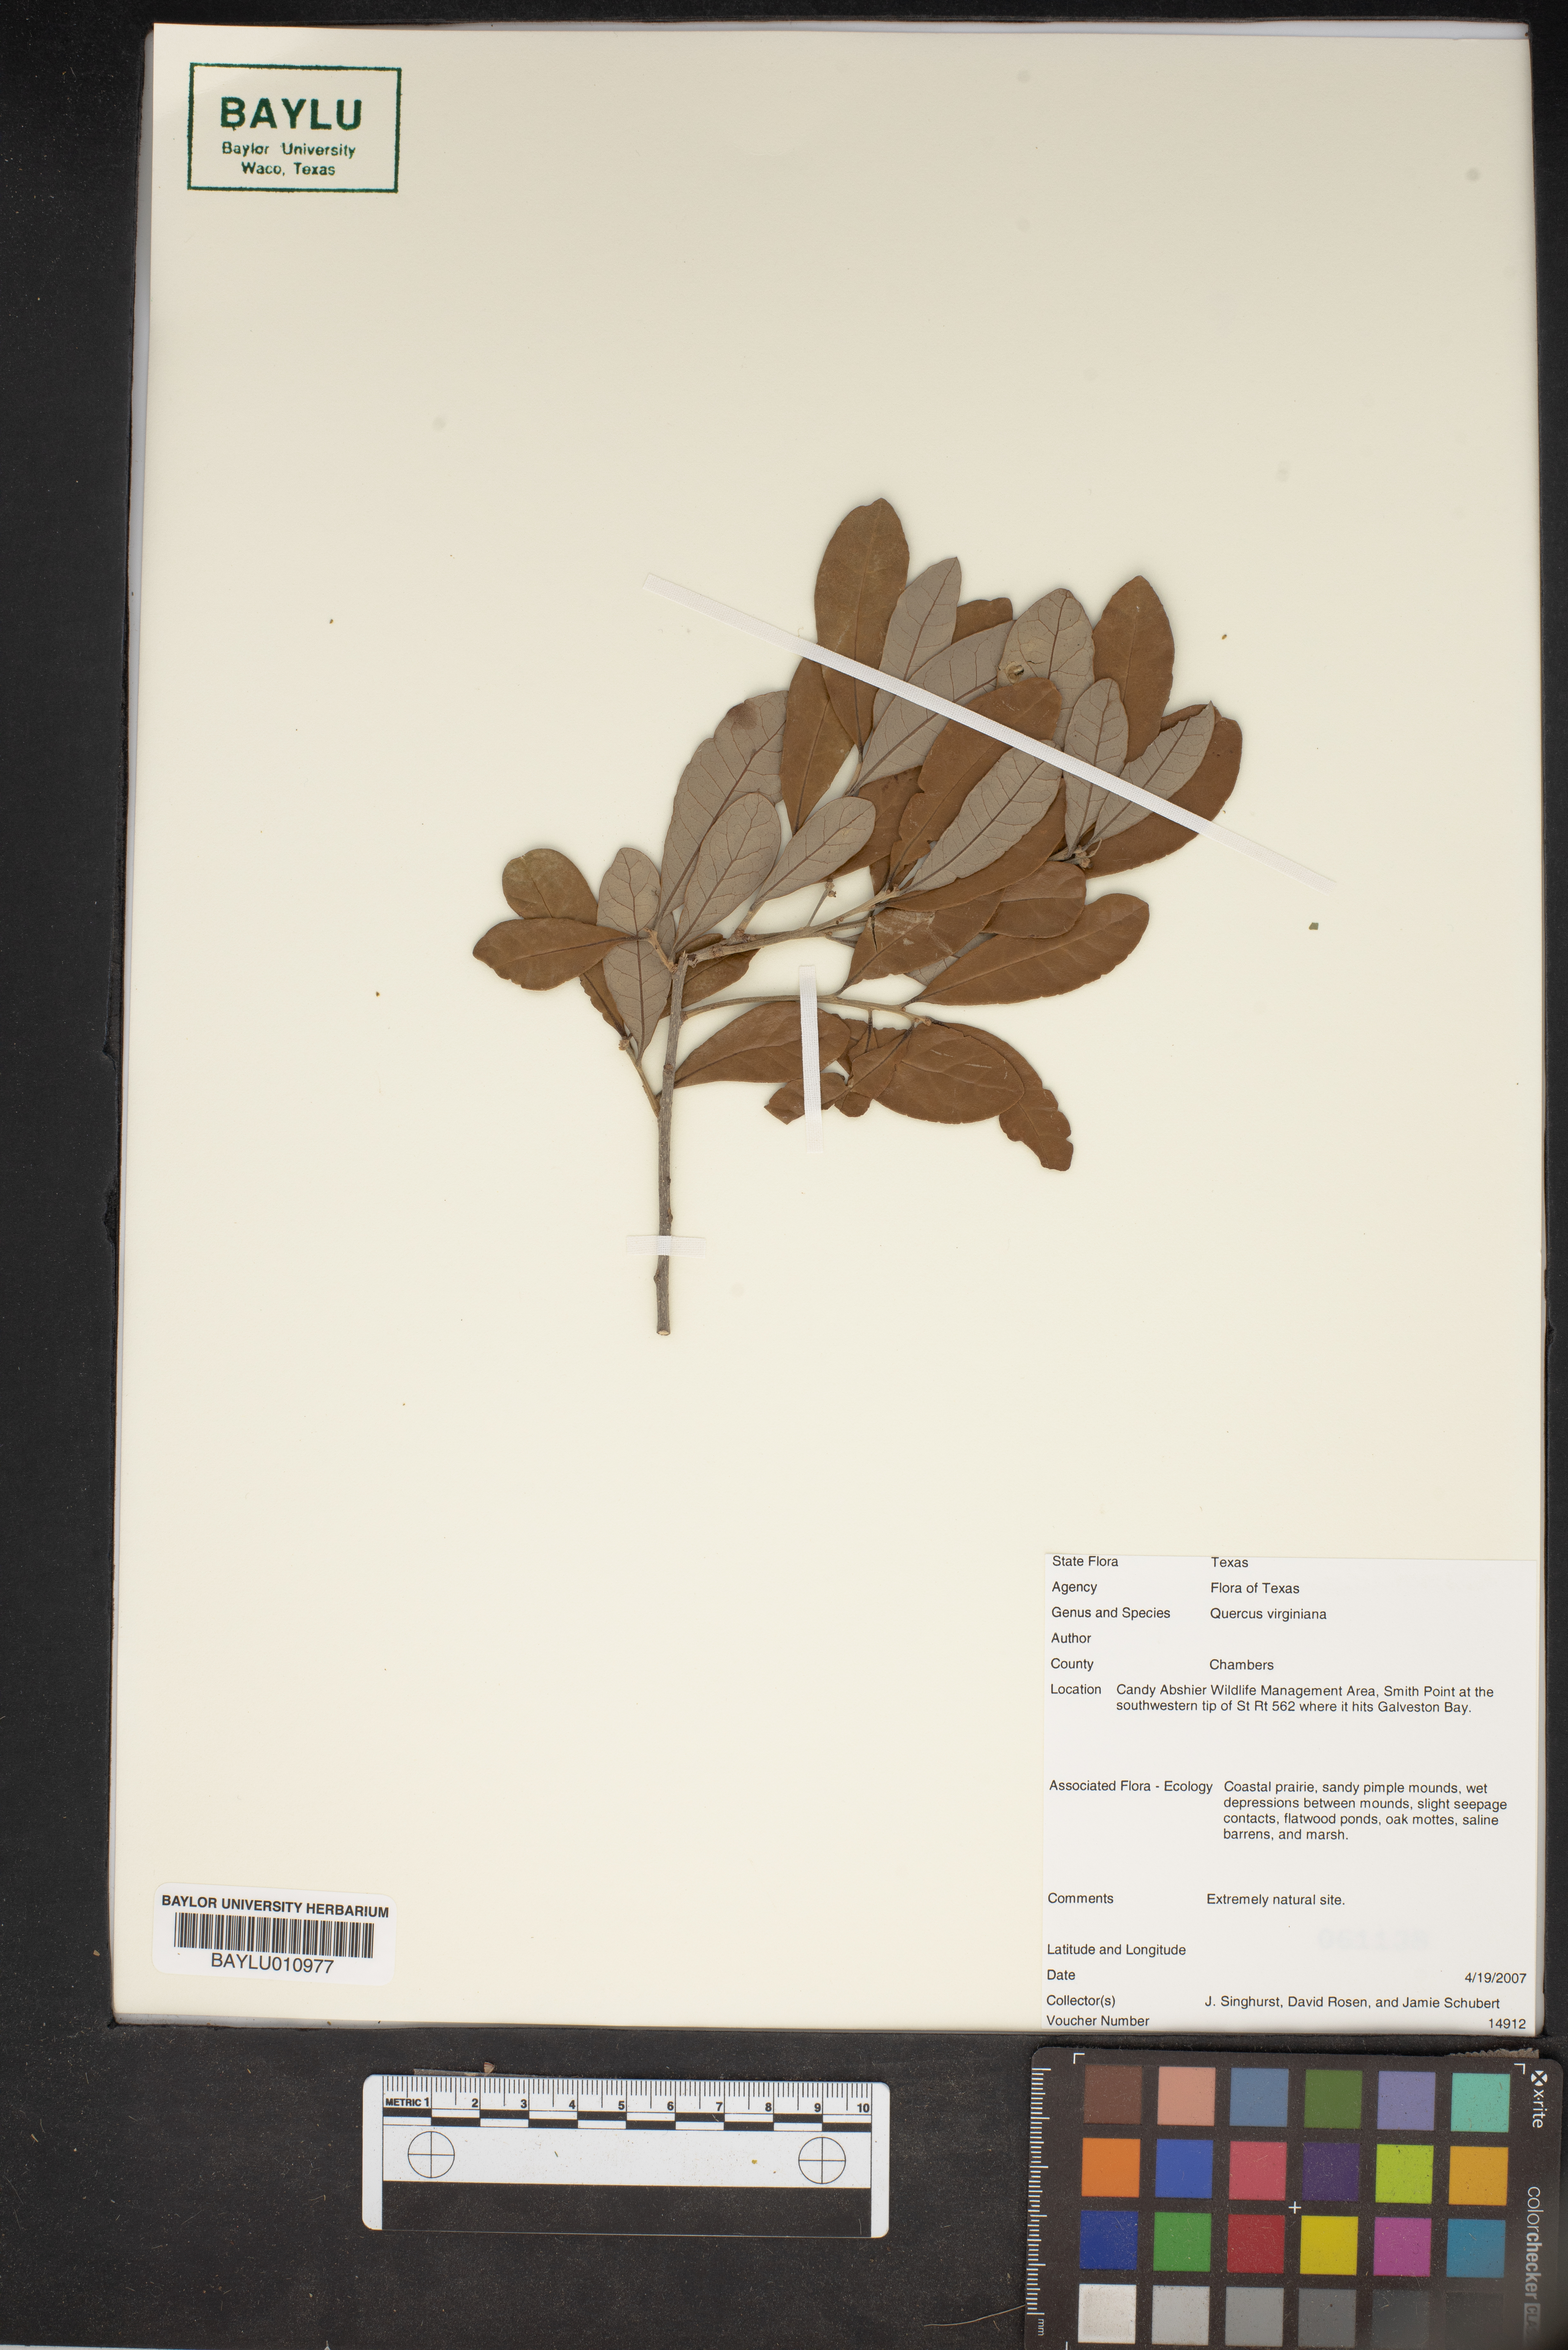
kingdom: Plantae
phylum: Tracheophyta
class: Magnoliopsida
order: Fagales
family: Fagaceae
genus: Quercus
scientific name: Quercus virginiana
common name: Southern live oak
